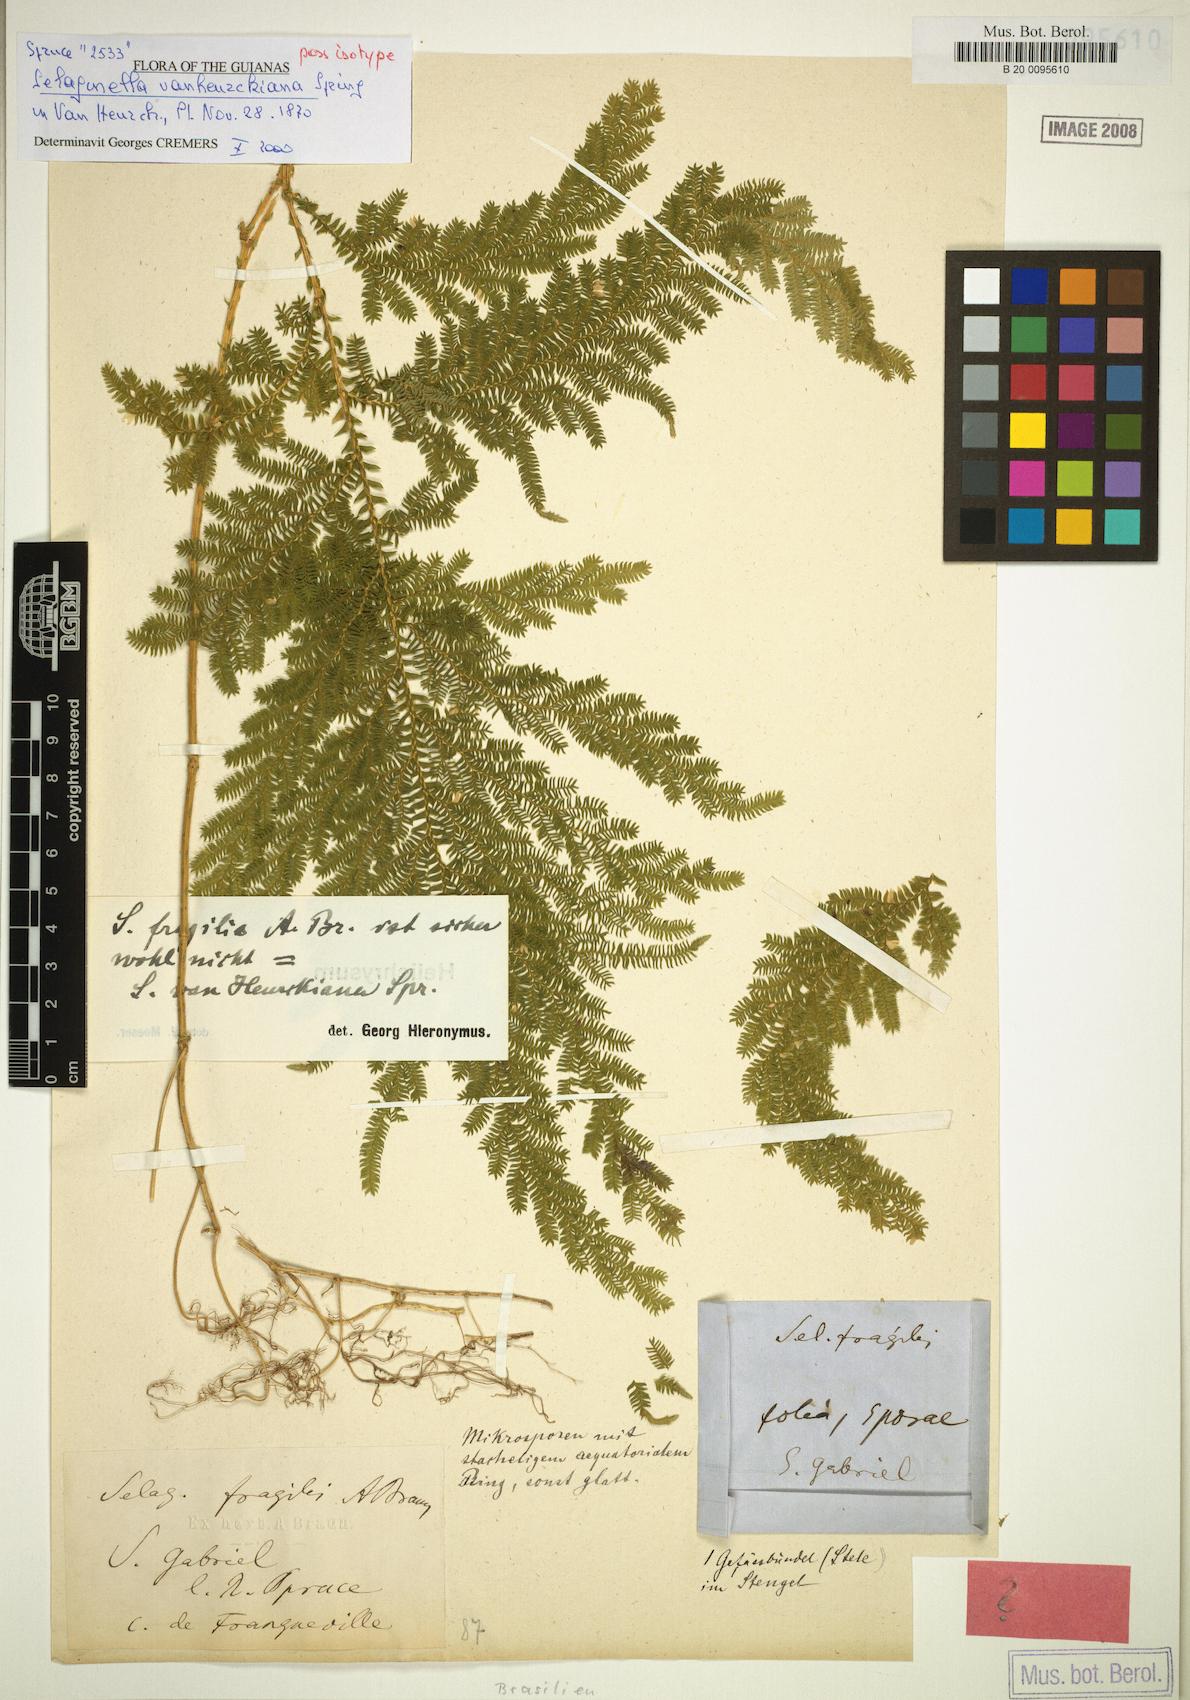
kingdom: Plantae
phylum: Tracheophyta
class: Lycopodiopsida
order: Selaginellales
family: Selaginellaceae
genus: Selaginella
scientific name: Selaginella fragilis
